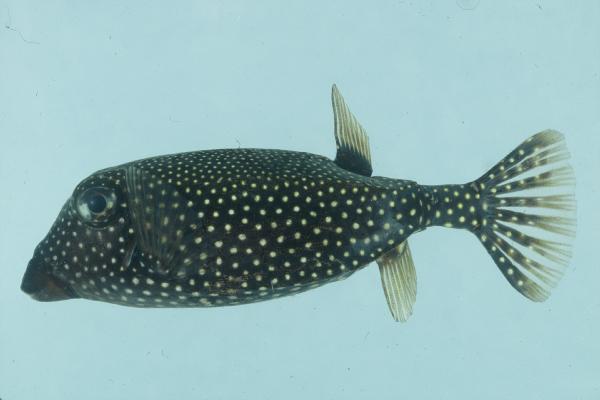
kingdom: Animalia
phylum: Chordata
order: Tetraodontiformes
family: Ostraciidae
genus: Ostracion
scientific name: Ostracion meleagris
